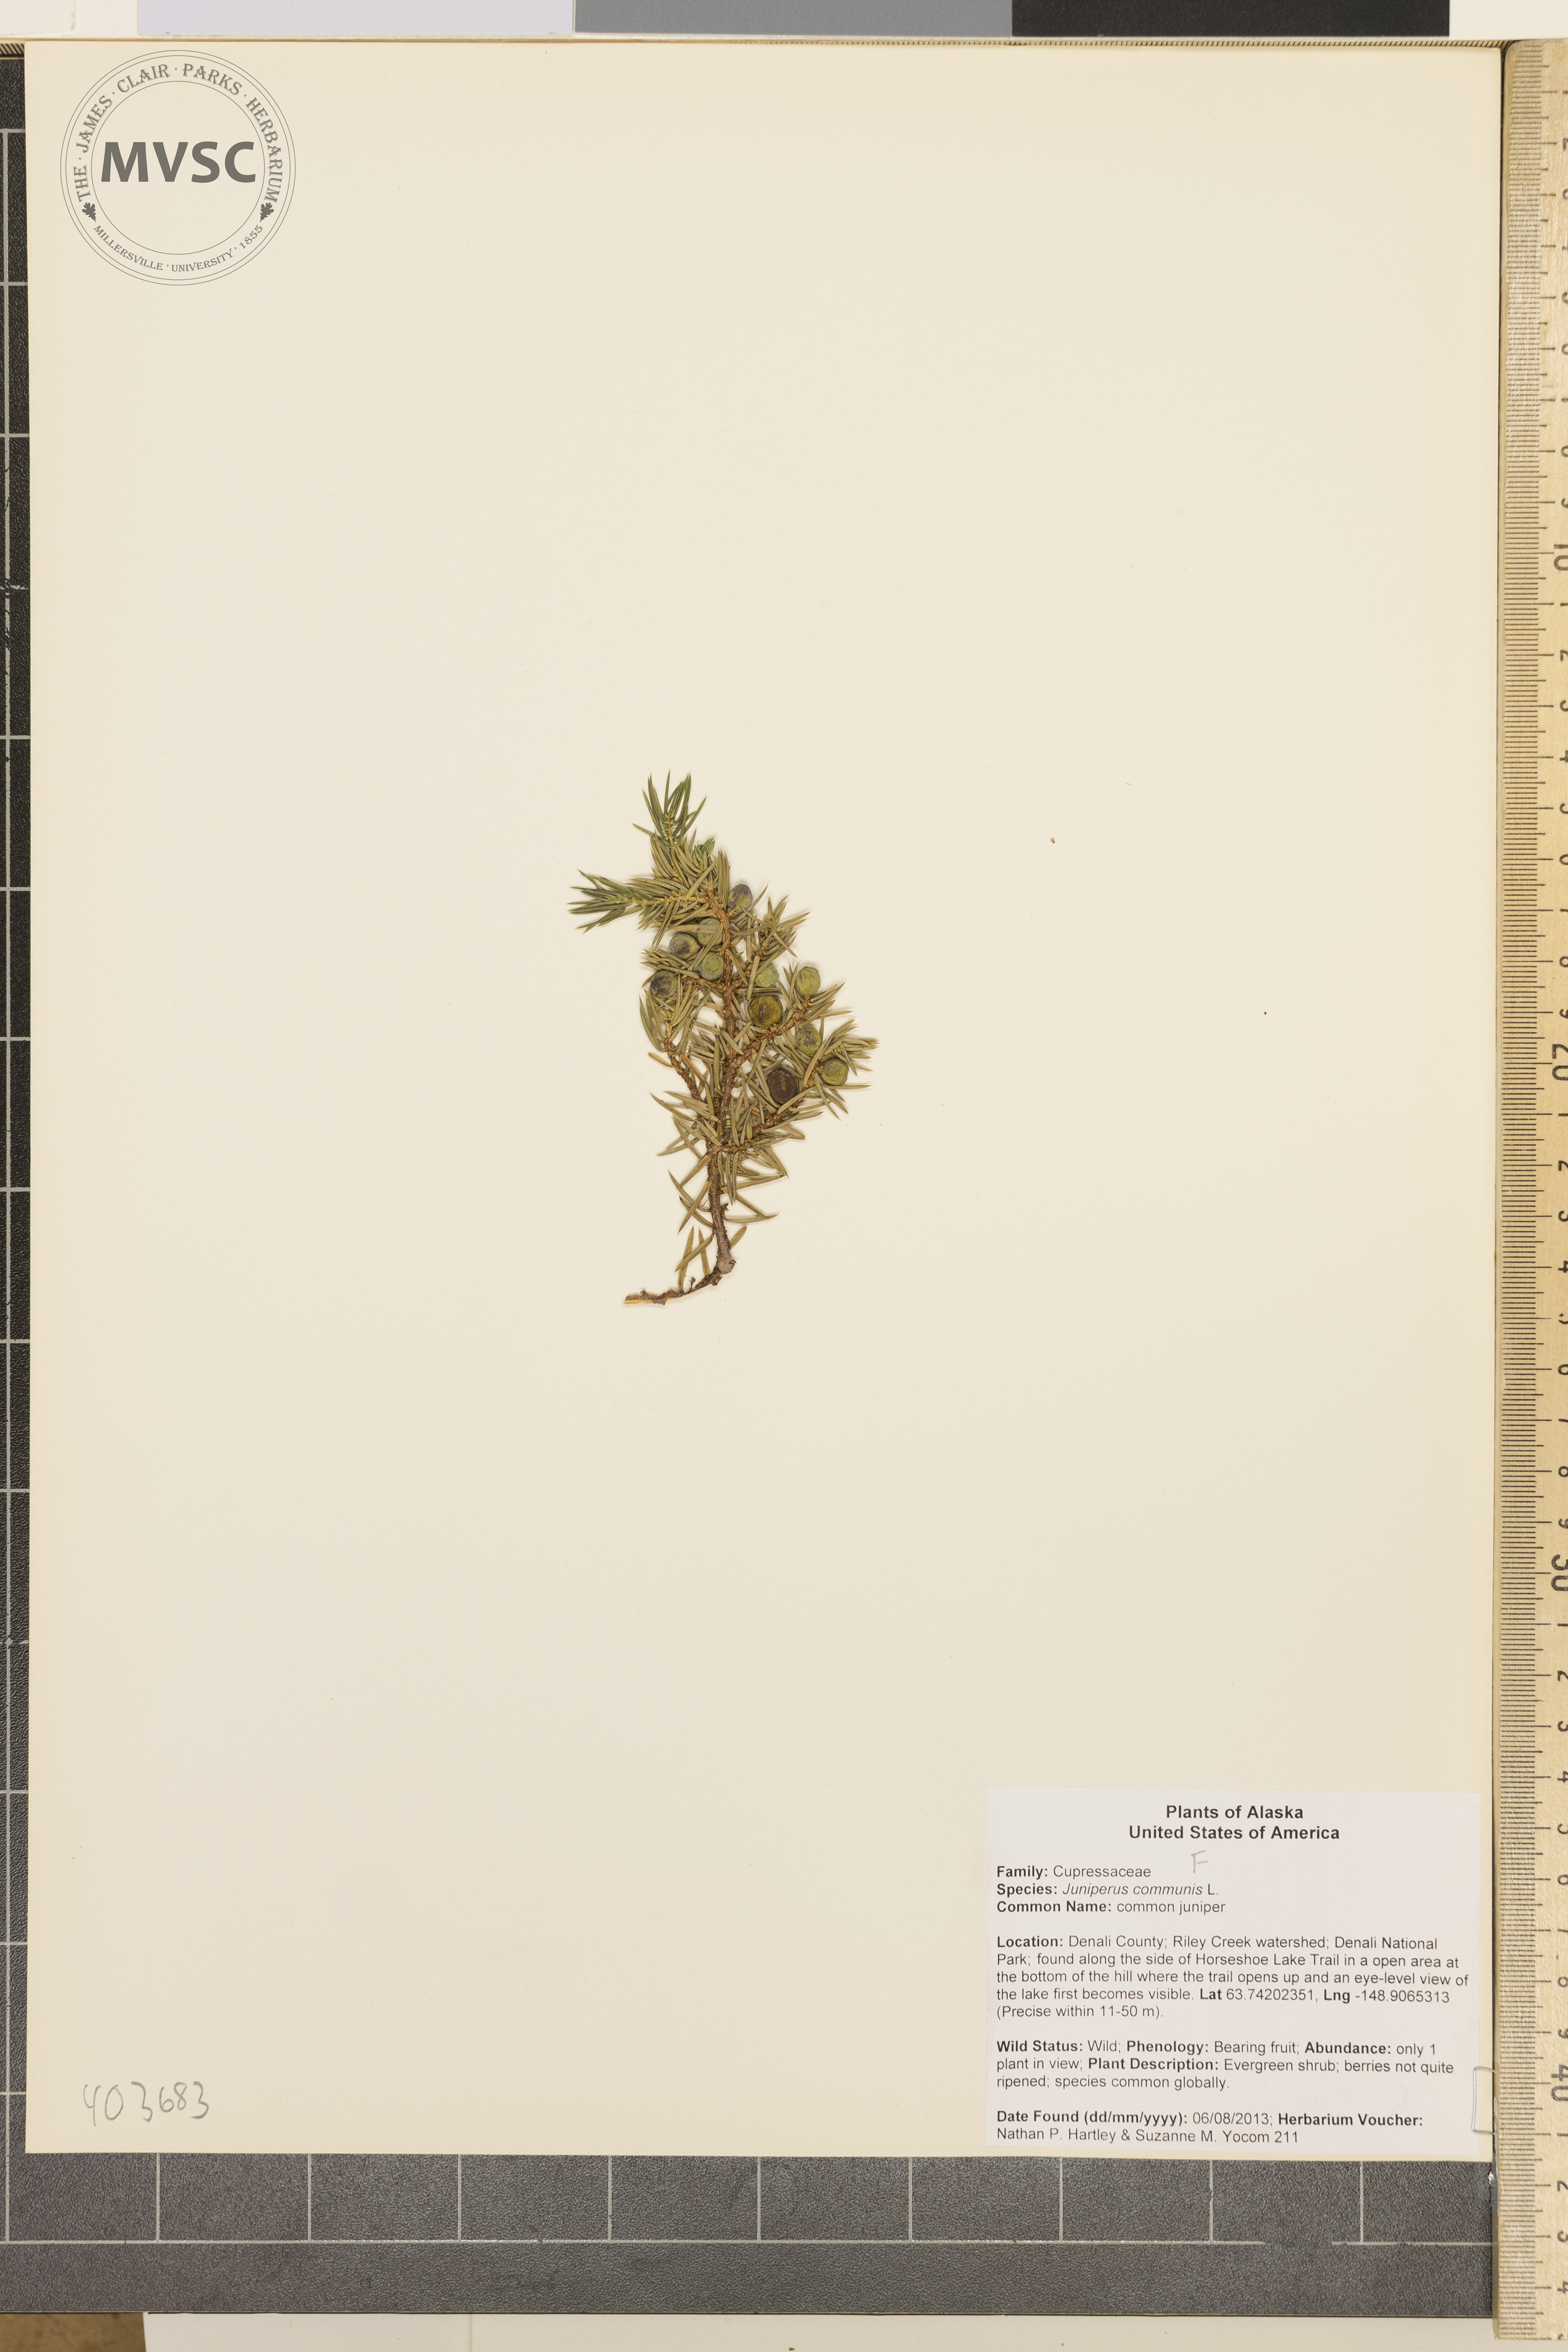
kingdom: Plantae
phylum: Tracheophyta
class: Pinopsida
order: Pinales
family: Cupressaceae
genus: Juniperus
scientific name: Juniperus communis
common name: common juniper
